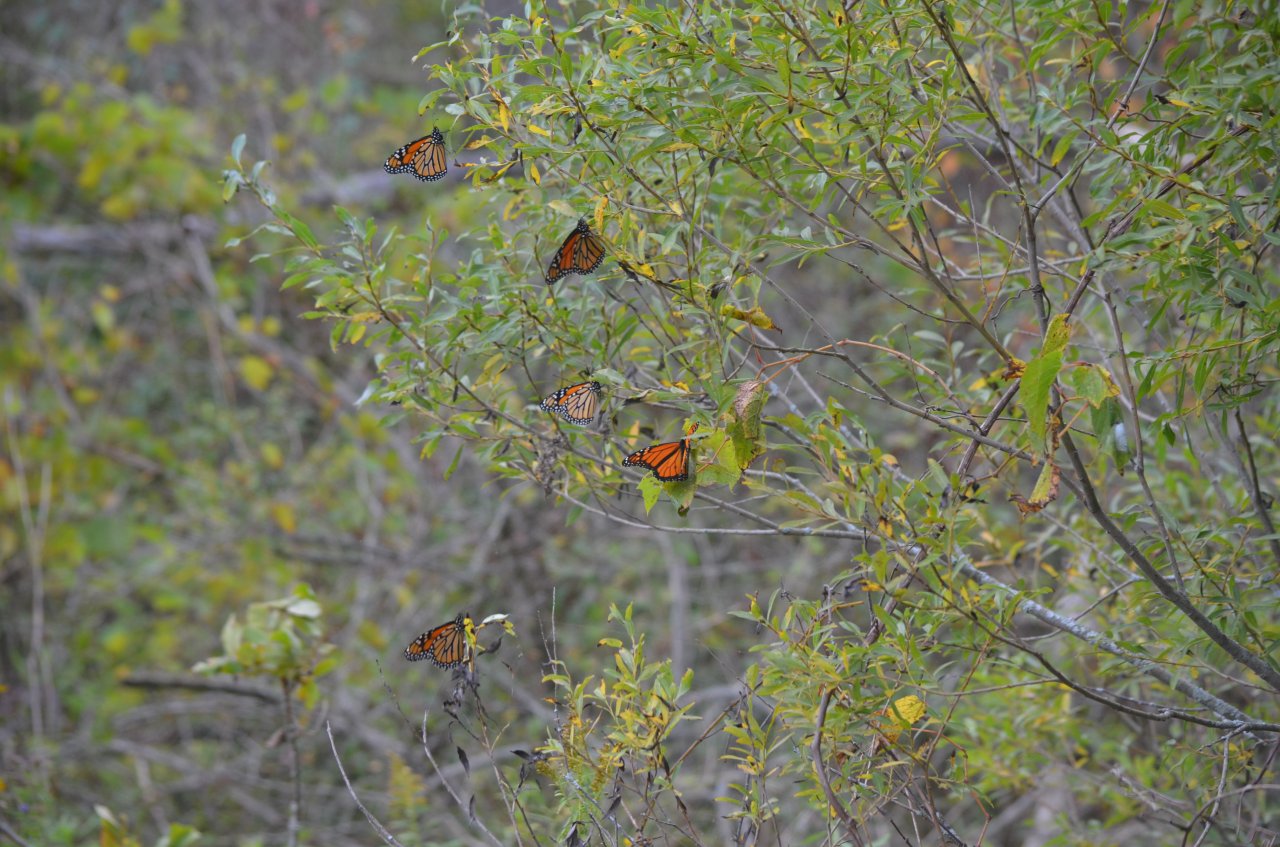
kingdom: Animalia
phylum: Arthropoda
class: Insecta
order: Lepidoptera
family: Nymphalidae
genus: Danaus
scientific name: Danaus plexippus
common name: Monarch
